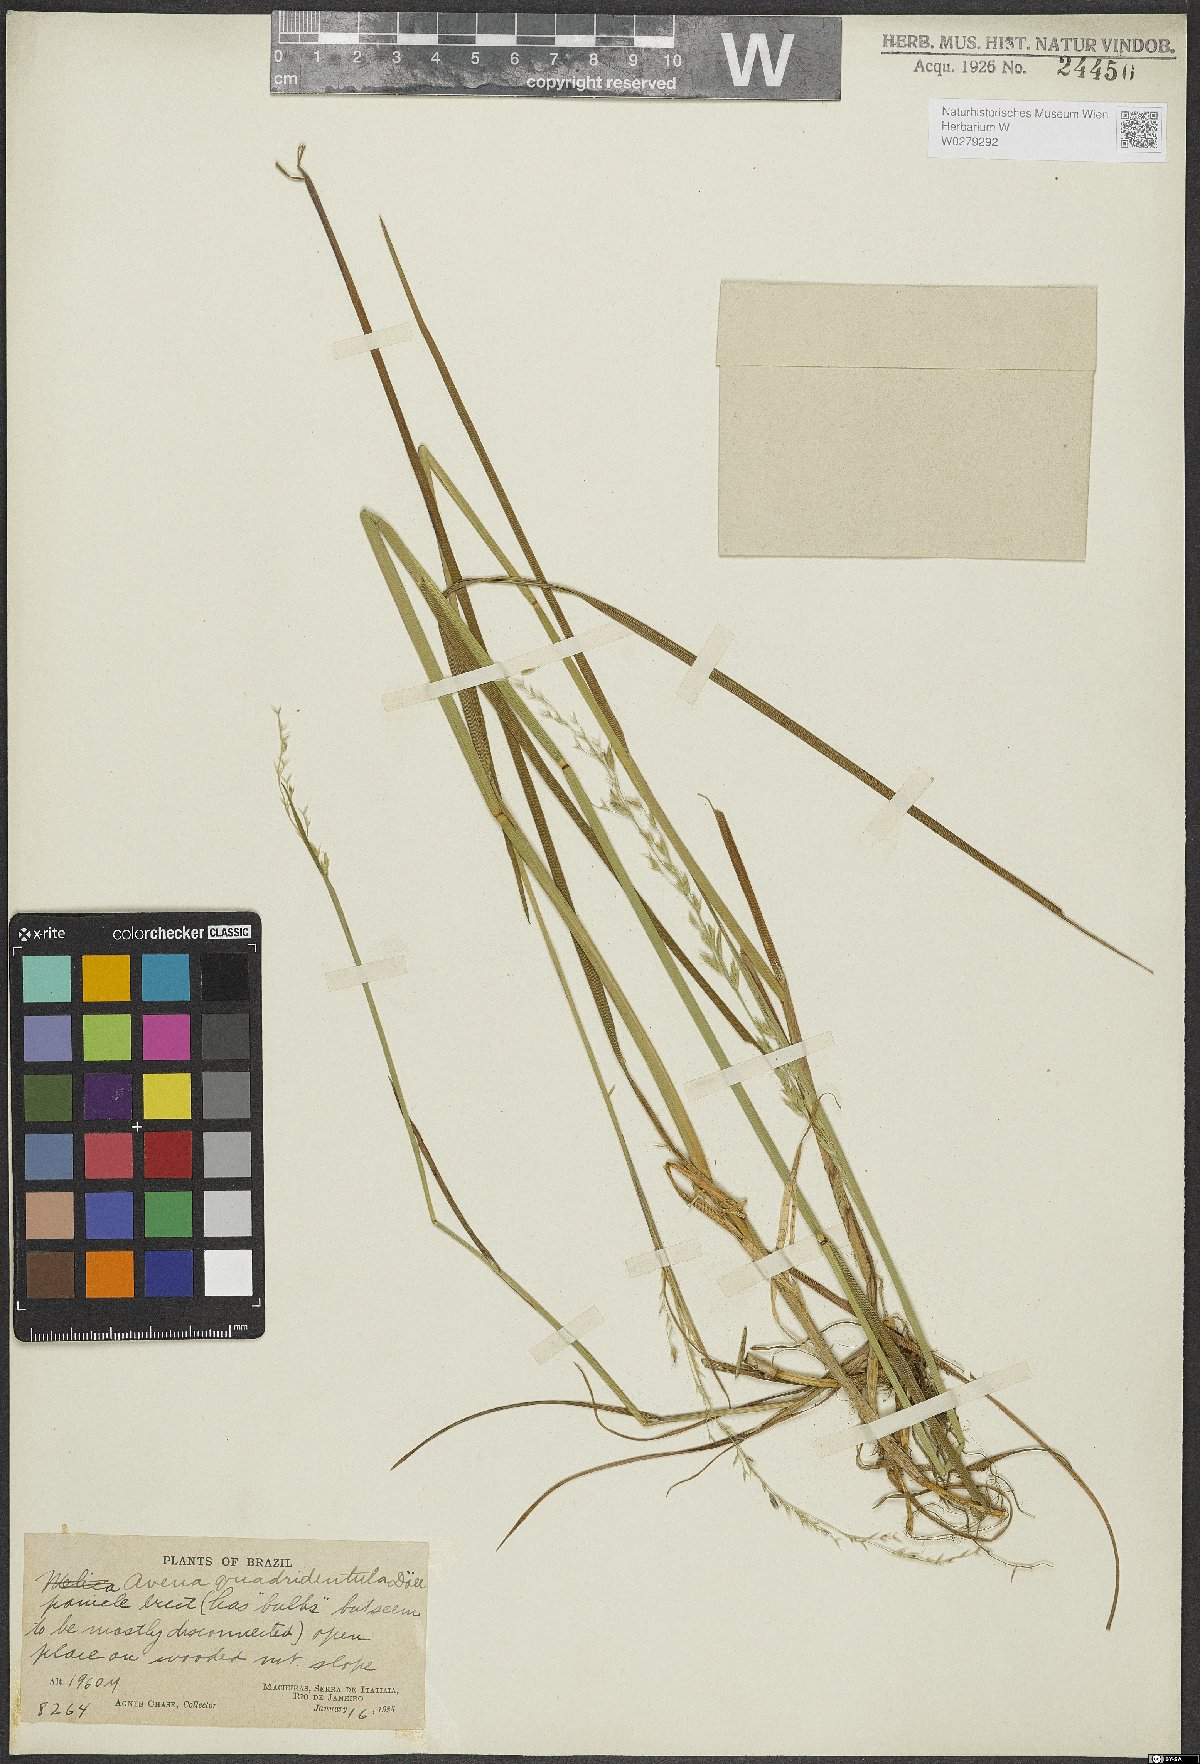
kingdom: Plantae
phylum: Tracheophyta
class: Liliopsida
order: Poales
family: Poaceae
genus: Amphibromus
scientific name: Amphibromus quadridentulus
